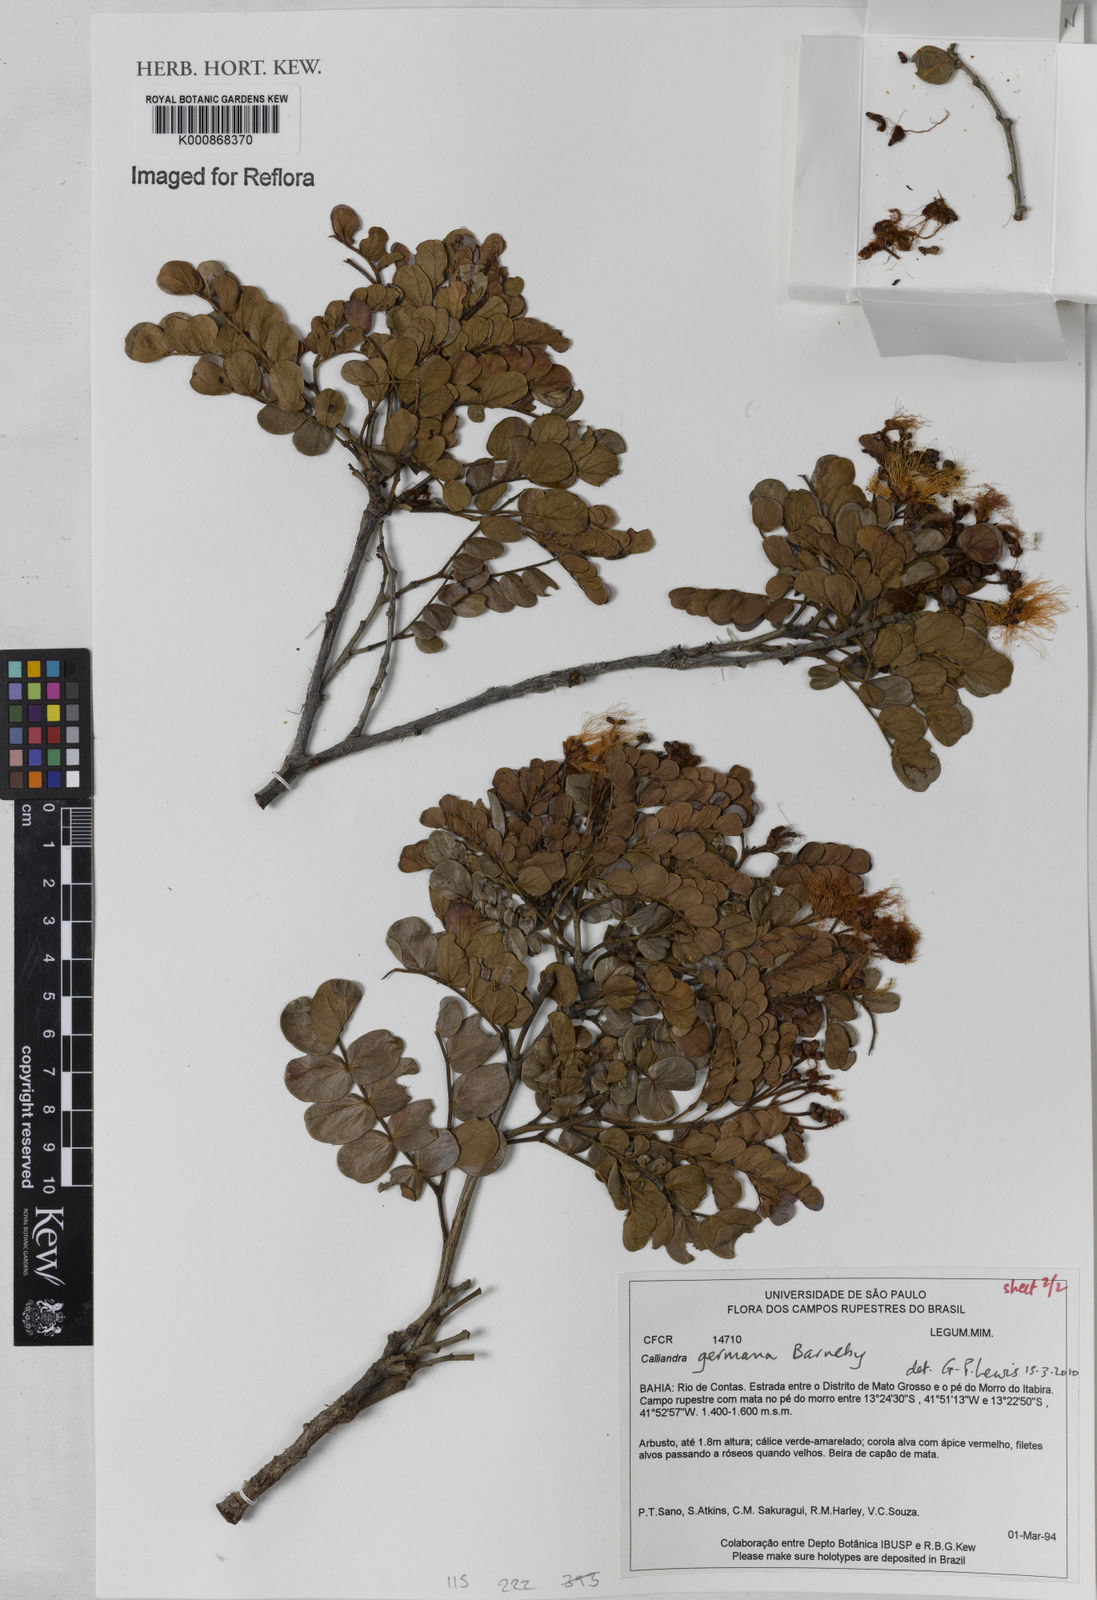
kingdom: Plantae
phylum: Tracheophyta
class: Magnoliopsida
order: Fabales
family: Fabaceae
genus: Calliandra
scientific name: Calliandra germana
